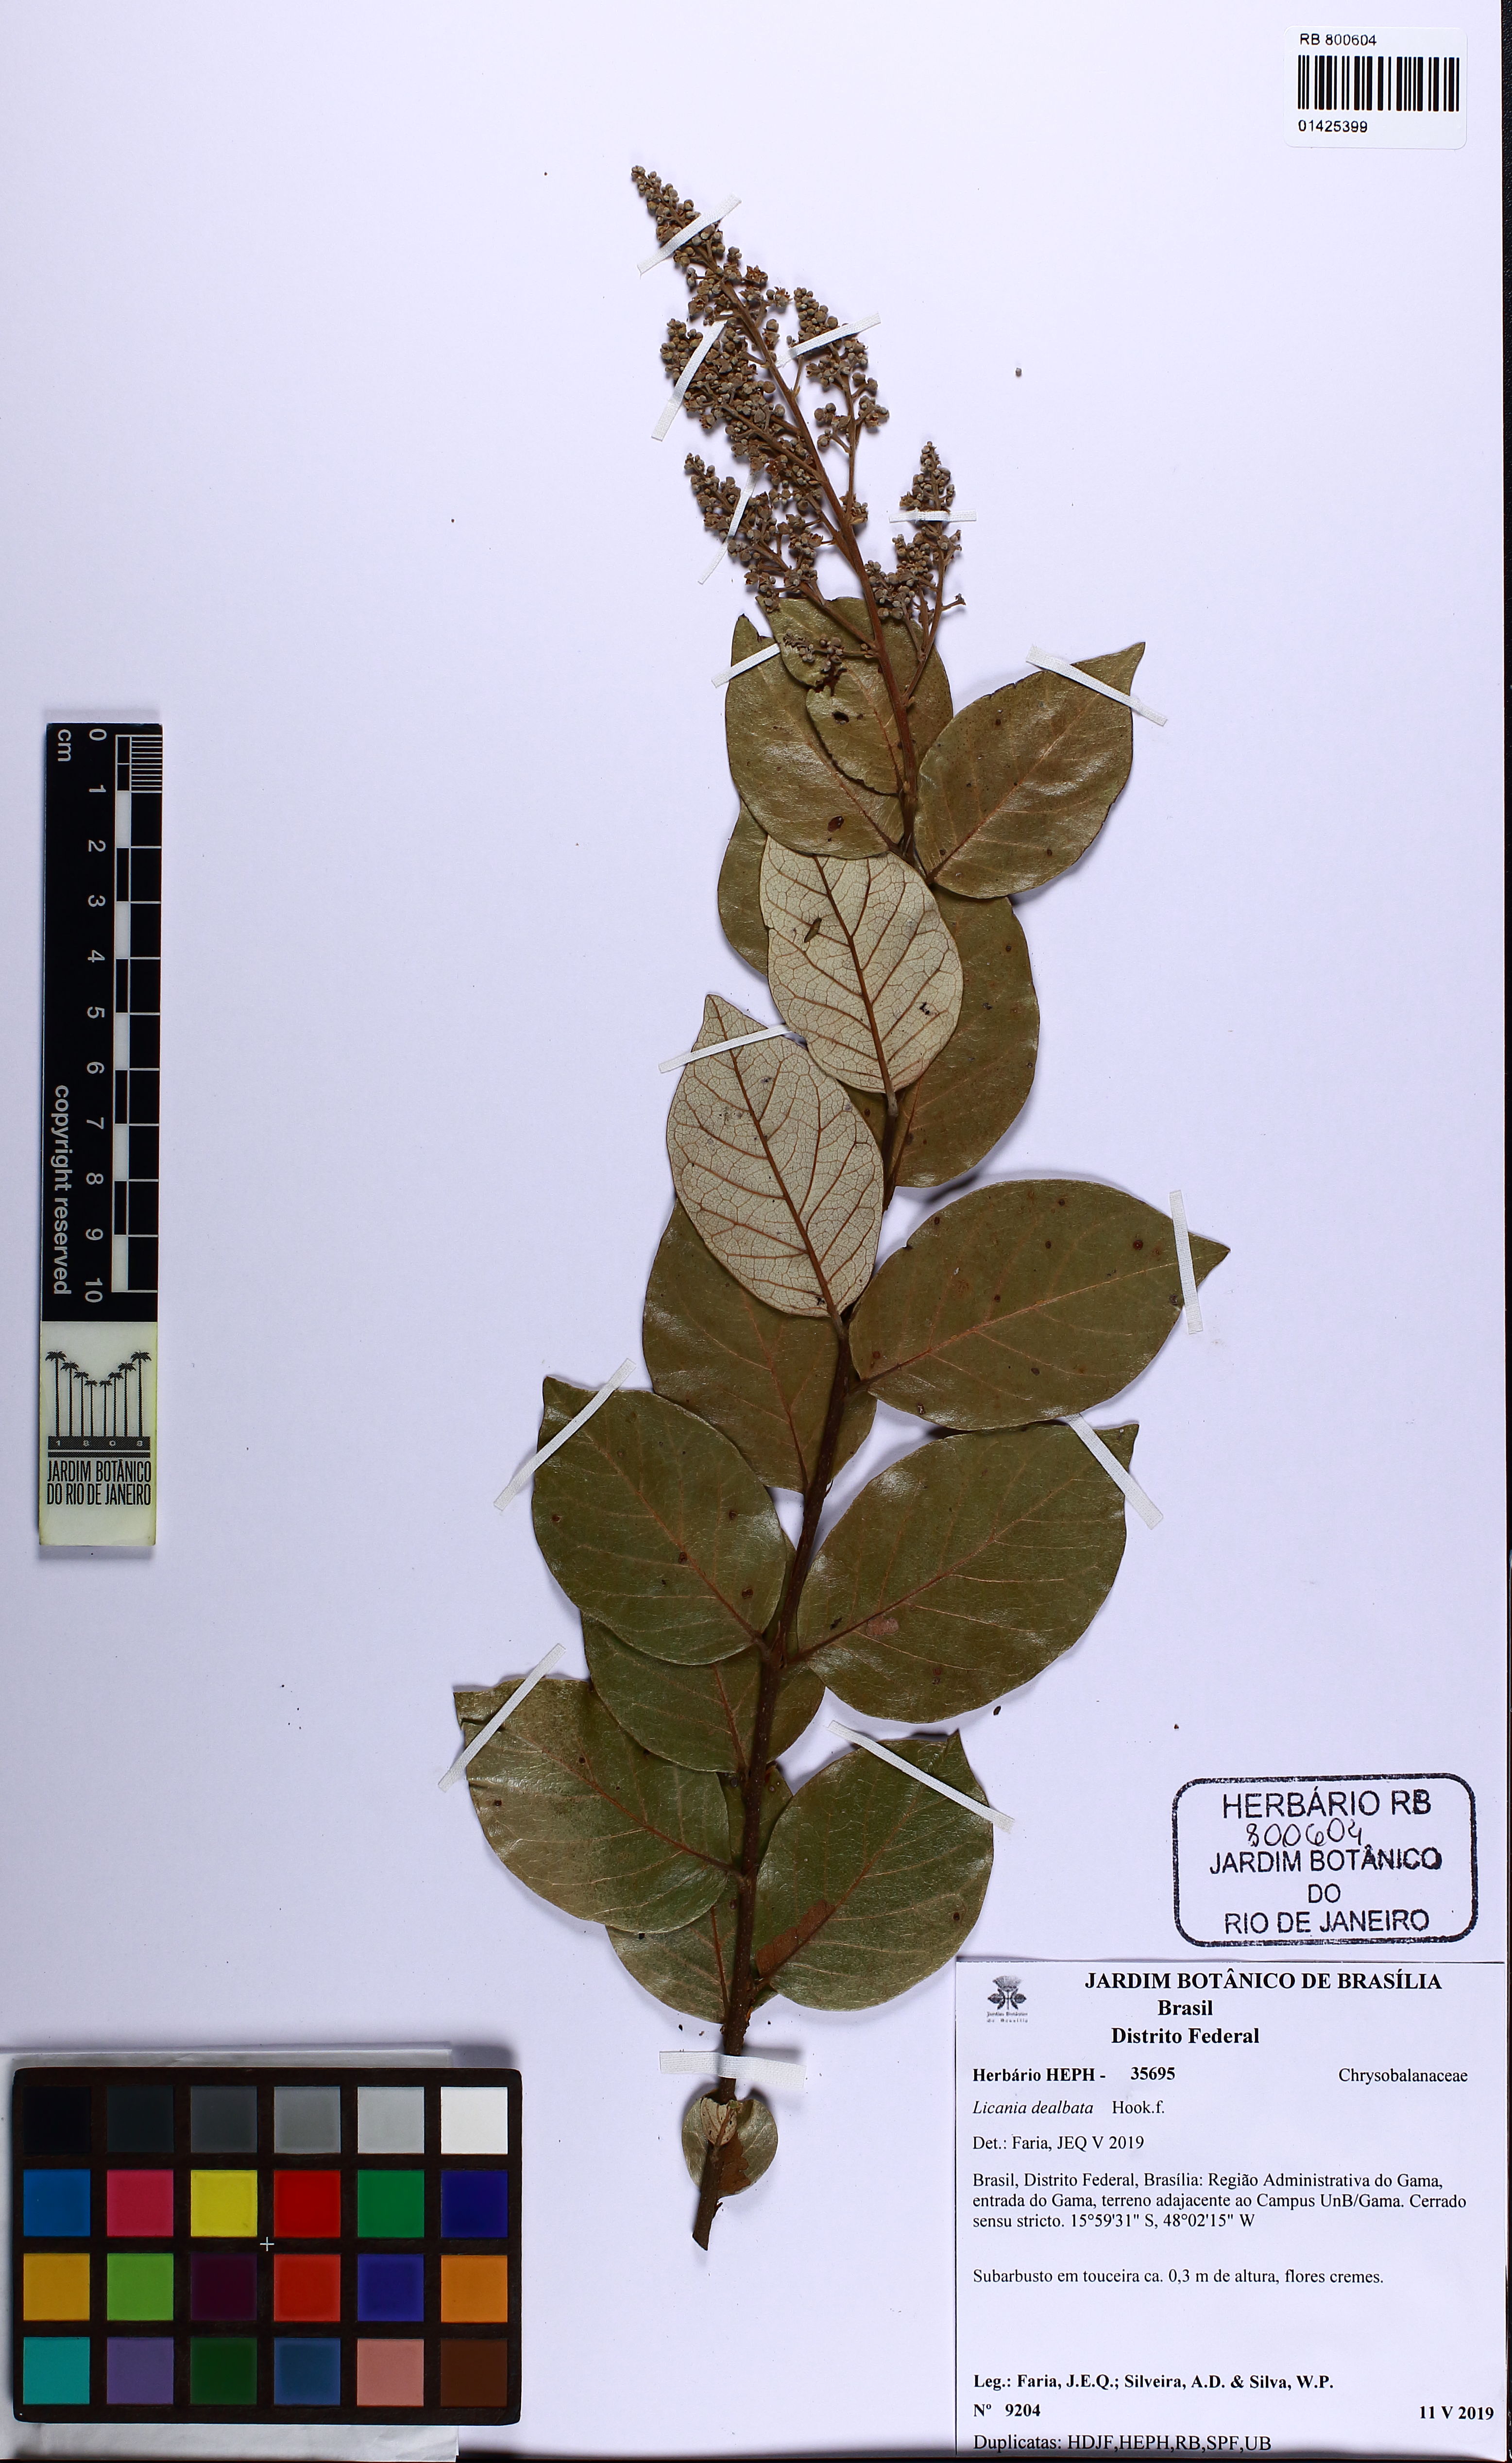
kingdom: Plantae
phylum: Tracheophyta
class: Magnoliopsida
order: Malpighiales
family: Chrysobalanaceae
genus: Licania
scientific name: Licania dealbata
